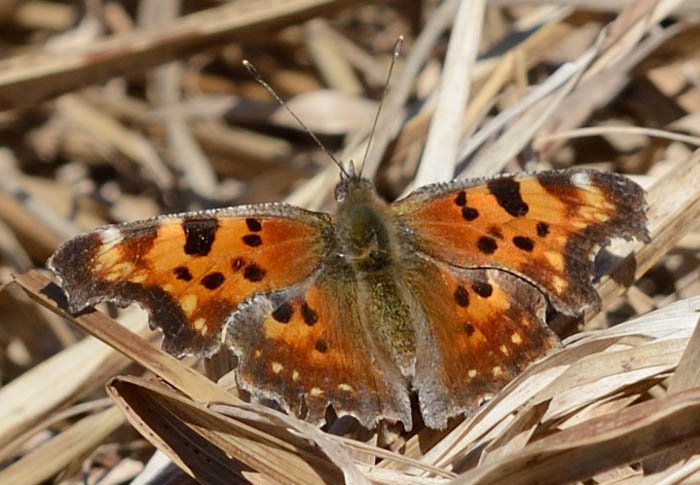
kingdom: Animalia
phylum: Arthropoda
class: Insecta
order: Lepidoptera
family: Nymphalidae
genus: Polygonia
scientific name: Polygonia faunus
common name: Green Comma
